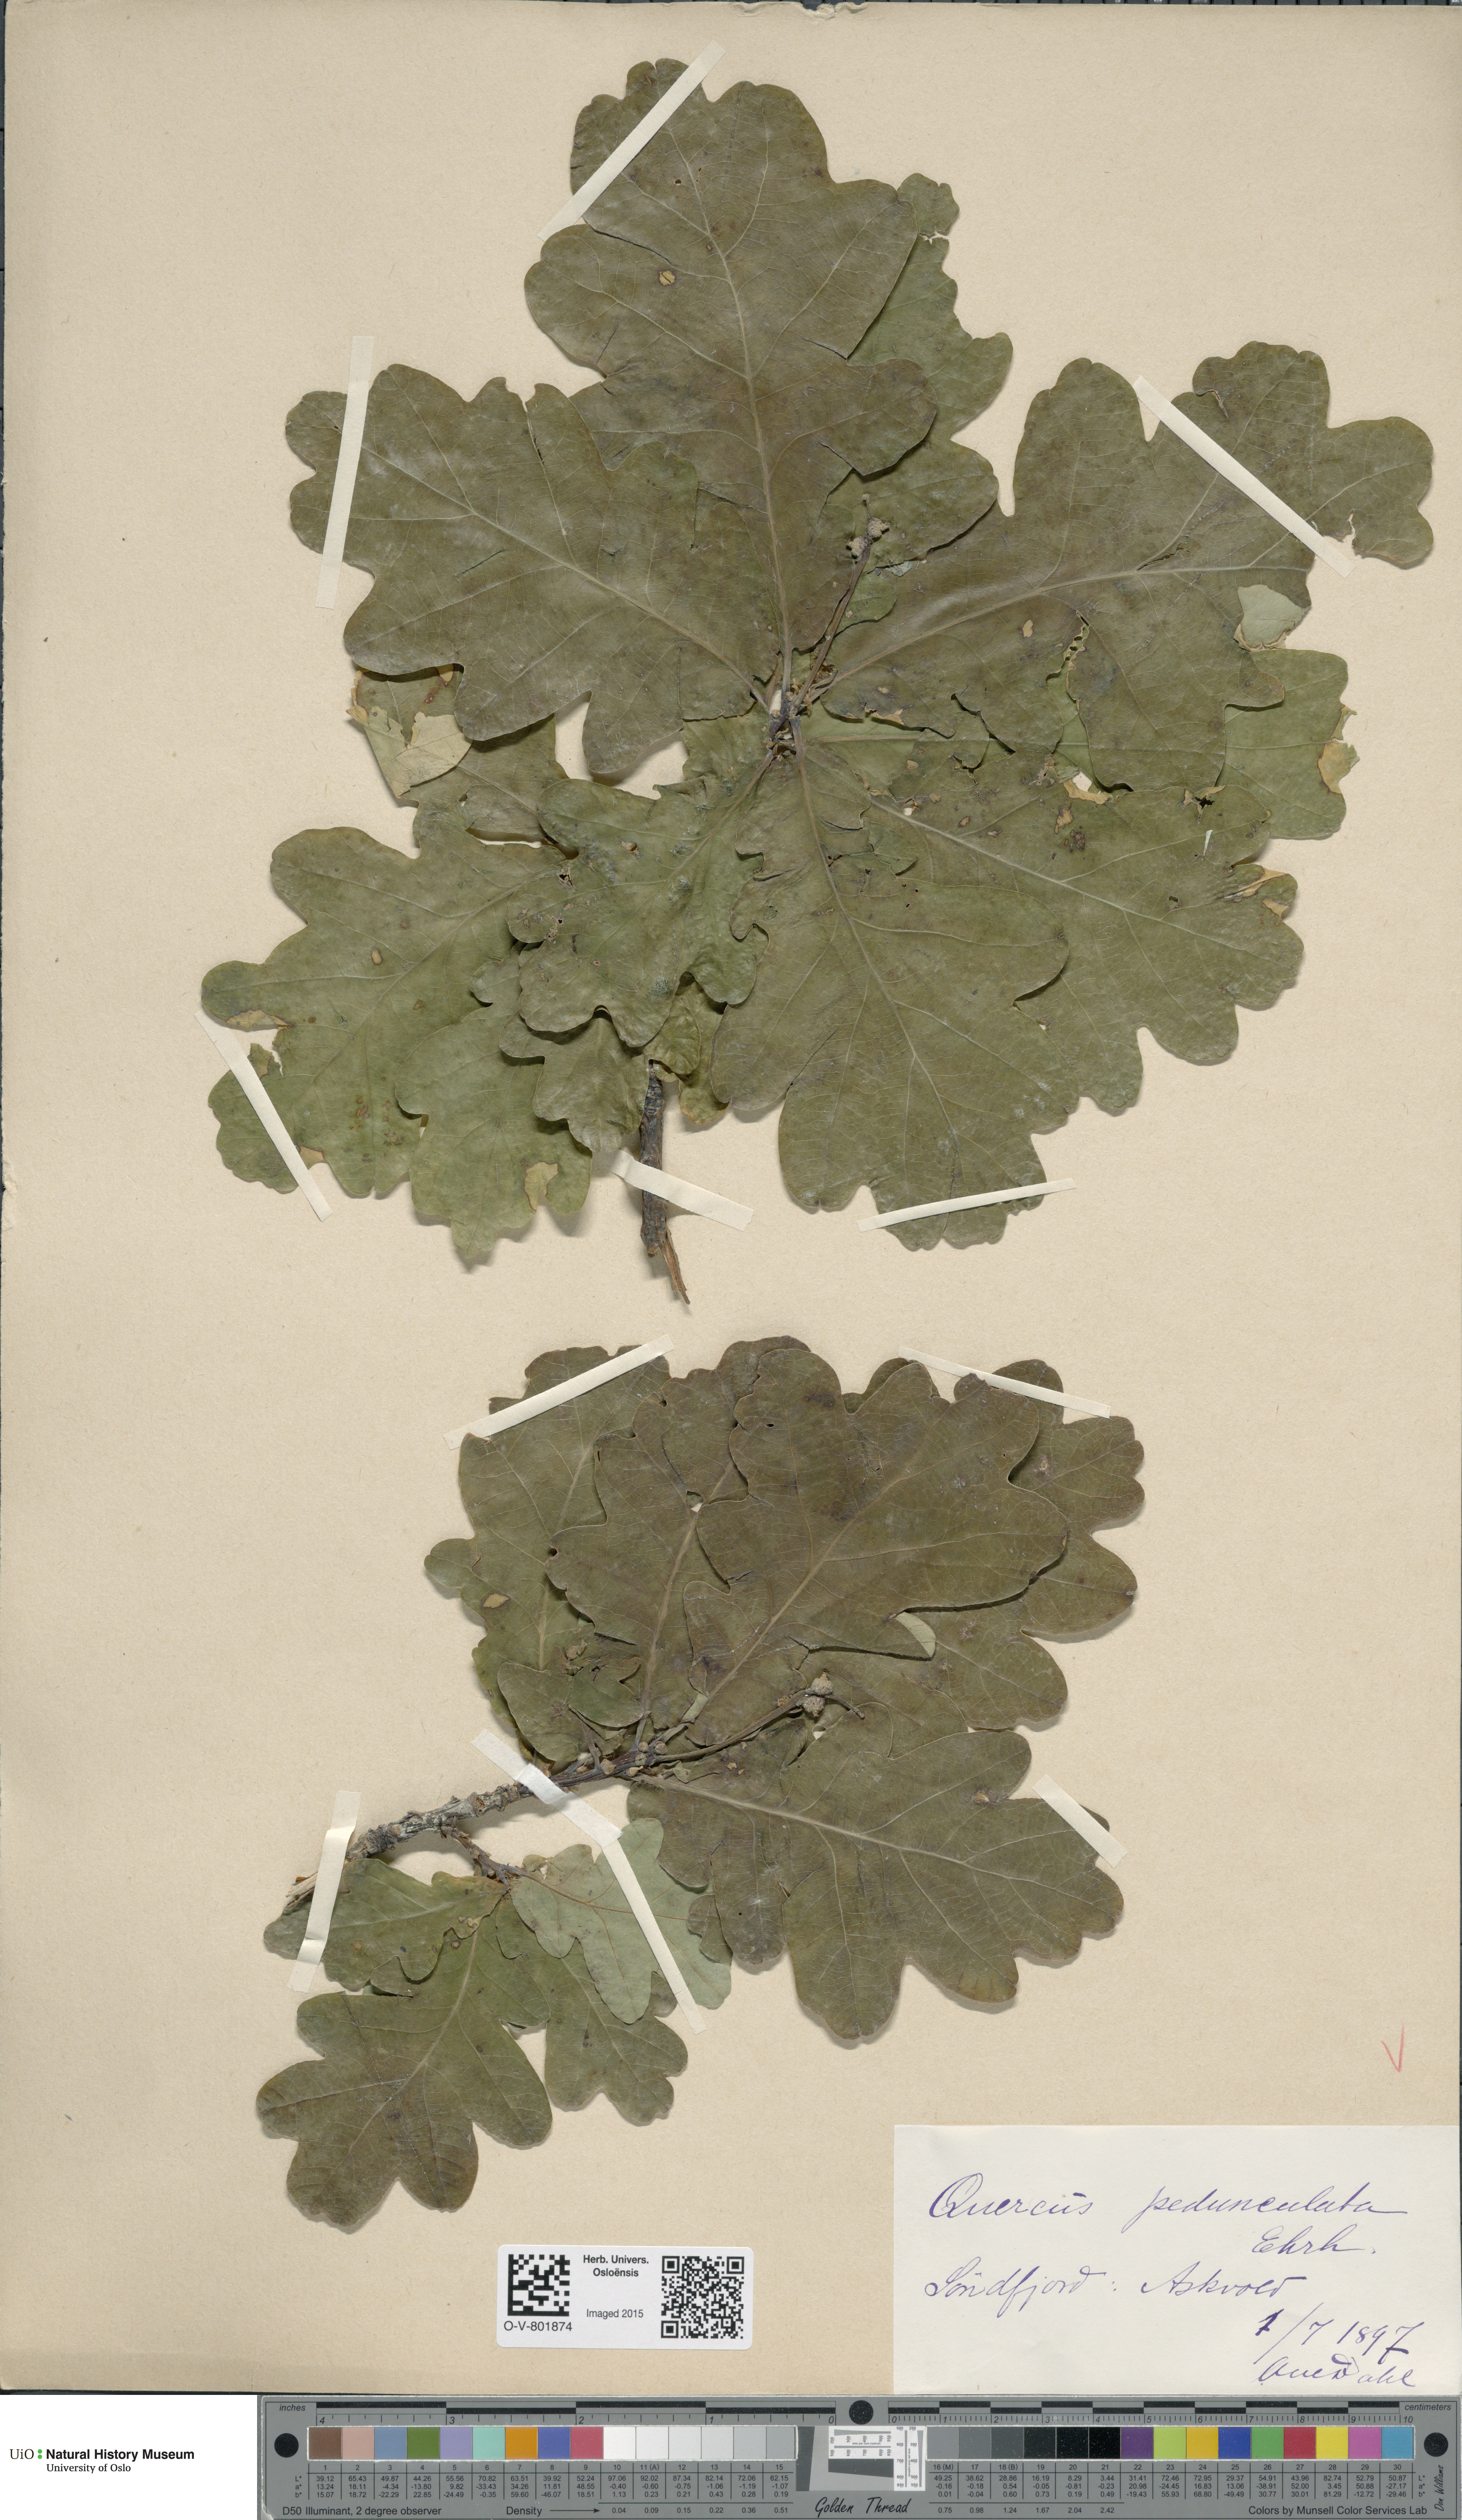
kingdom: Plantae
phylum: Tracheophyta
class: Magnoliopsida
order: Fagales
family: Fagaceae
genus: Quercus
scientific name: Quercus robur
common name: Pedunculate oak
